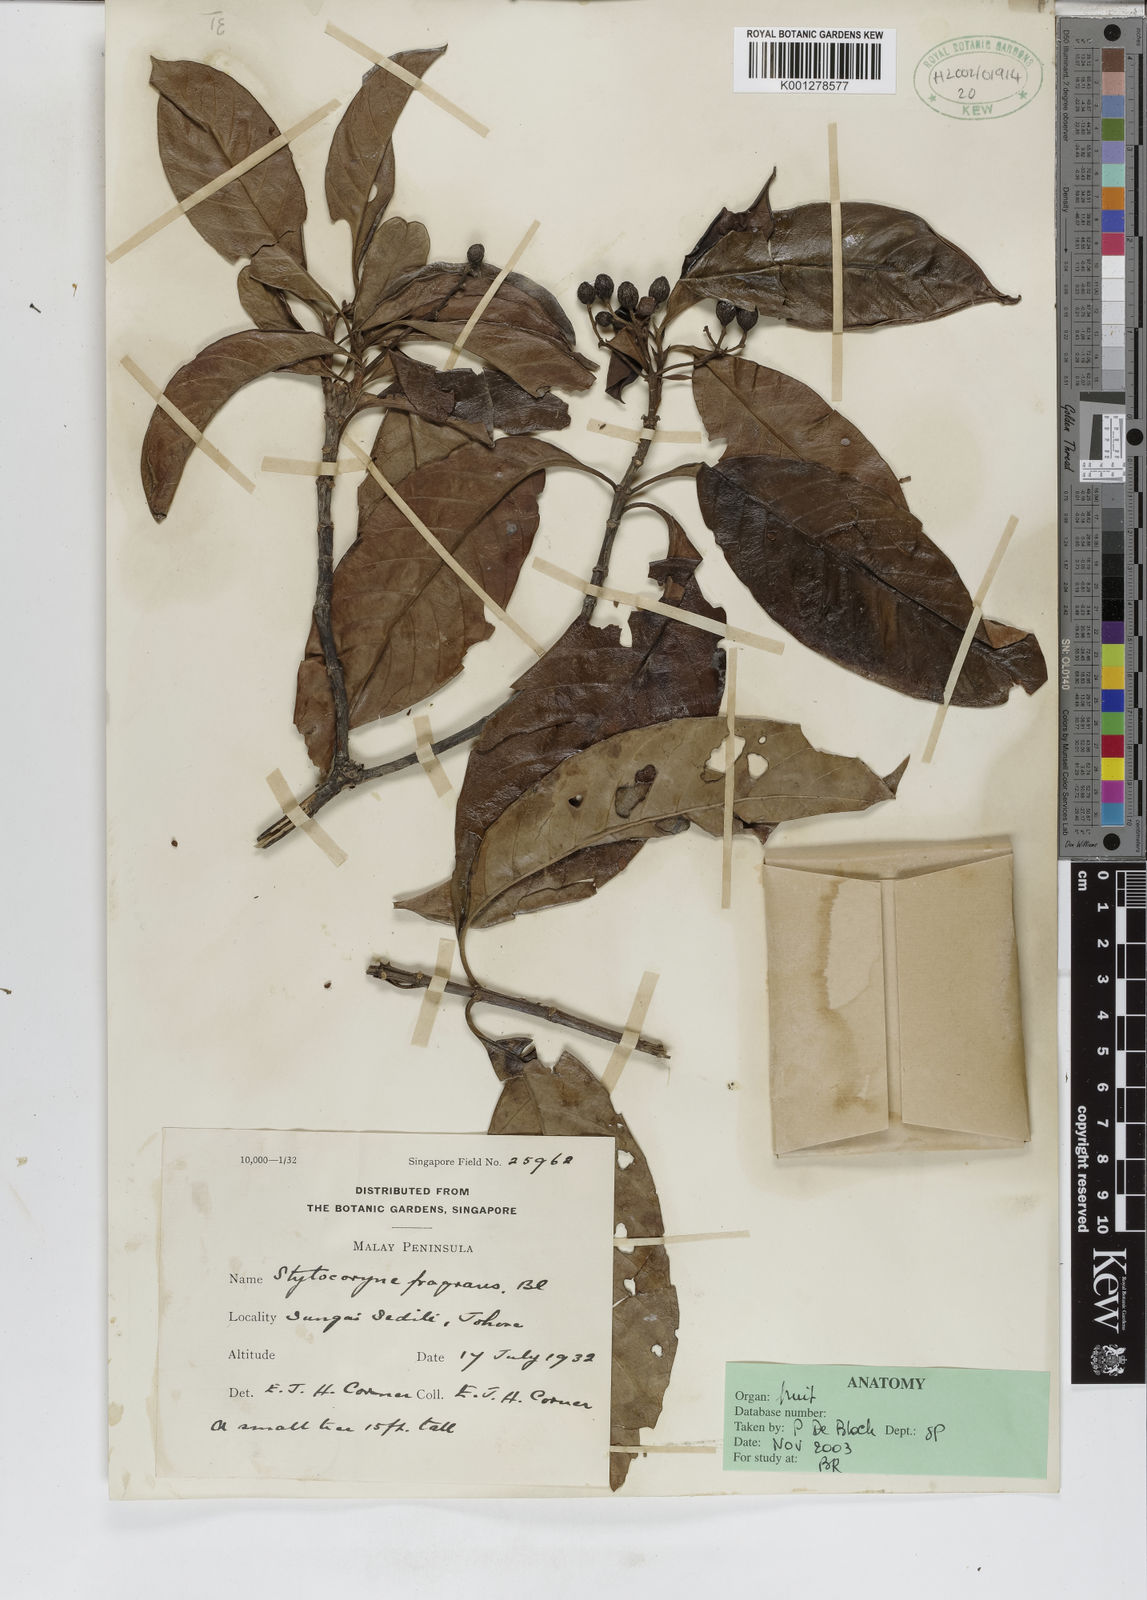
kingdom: Plantae
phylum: Tracheophyta
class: Magnoliopsida
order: Gentianales
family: Rubiaceae
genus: Tarenna
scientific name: Tarenna fragrans
